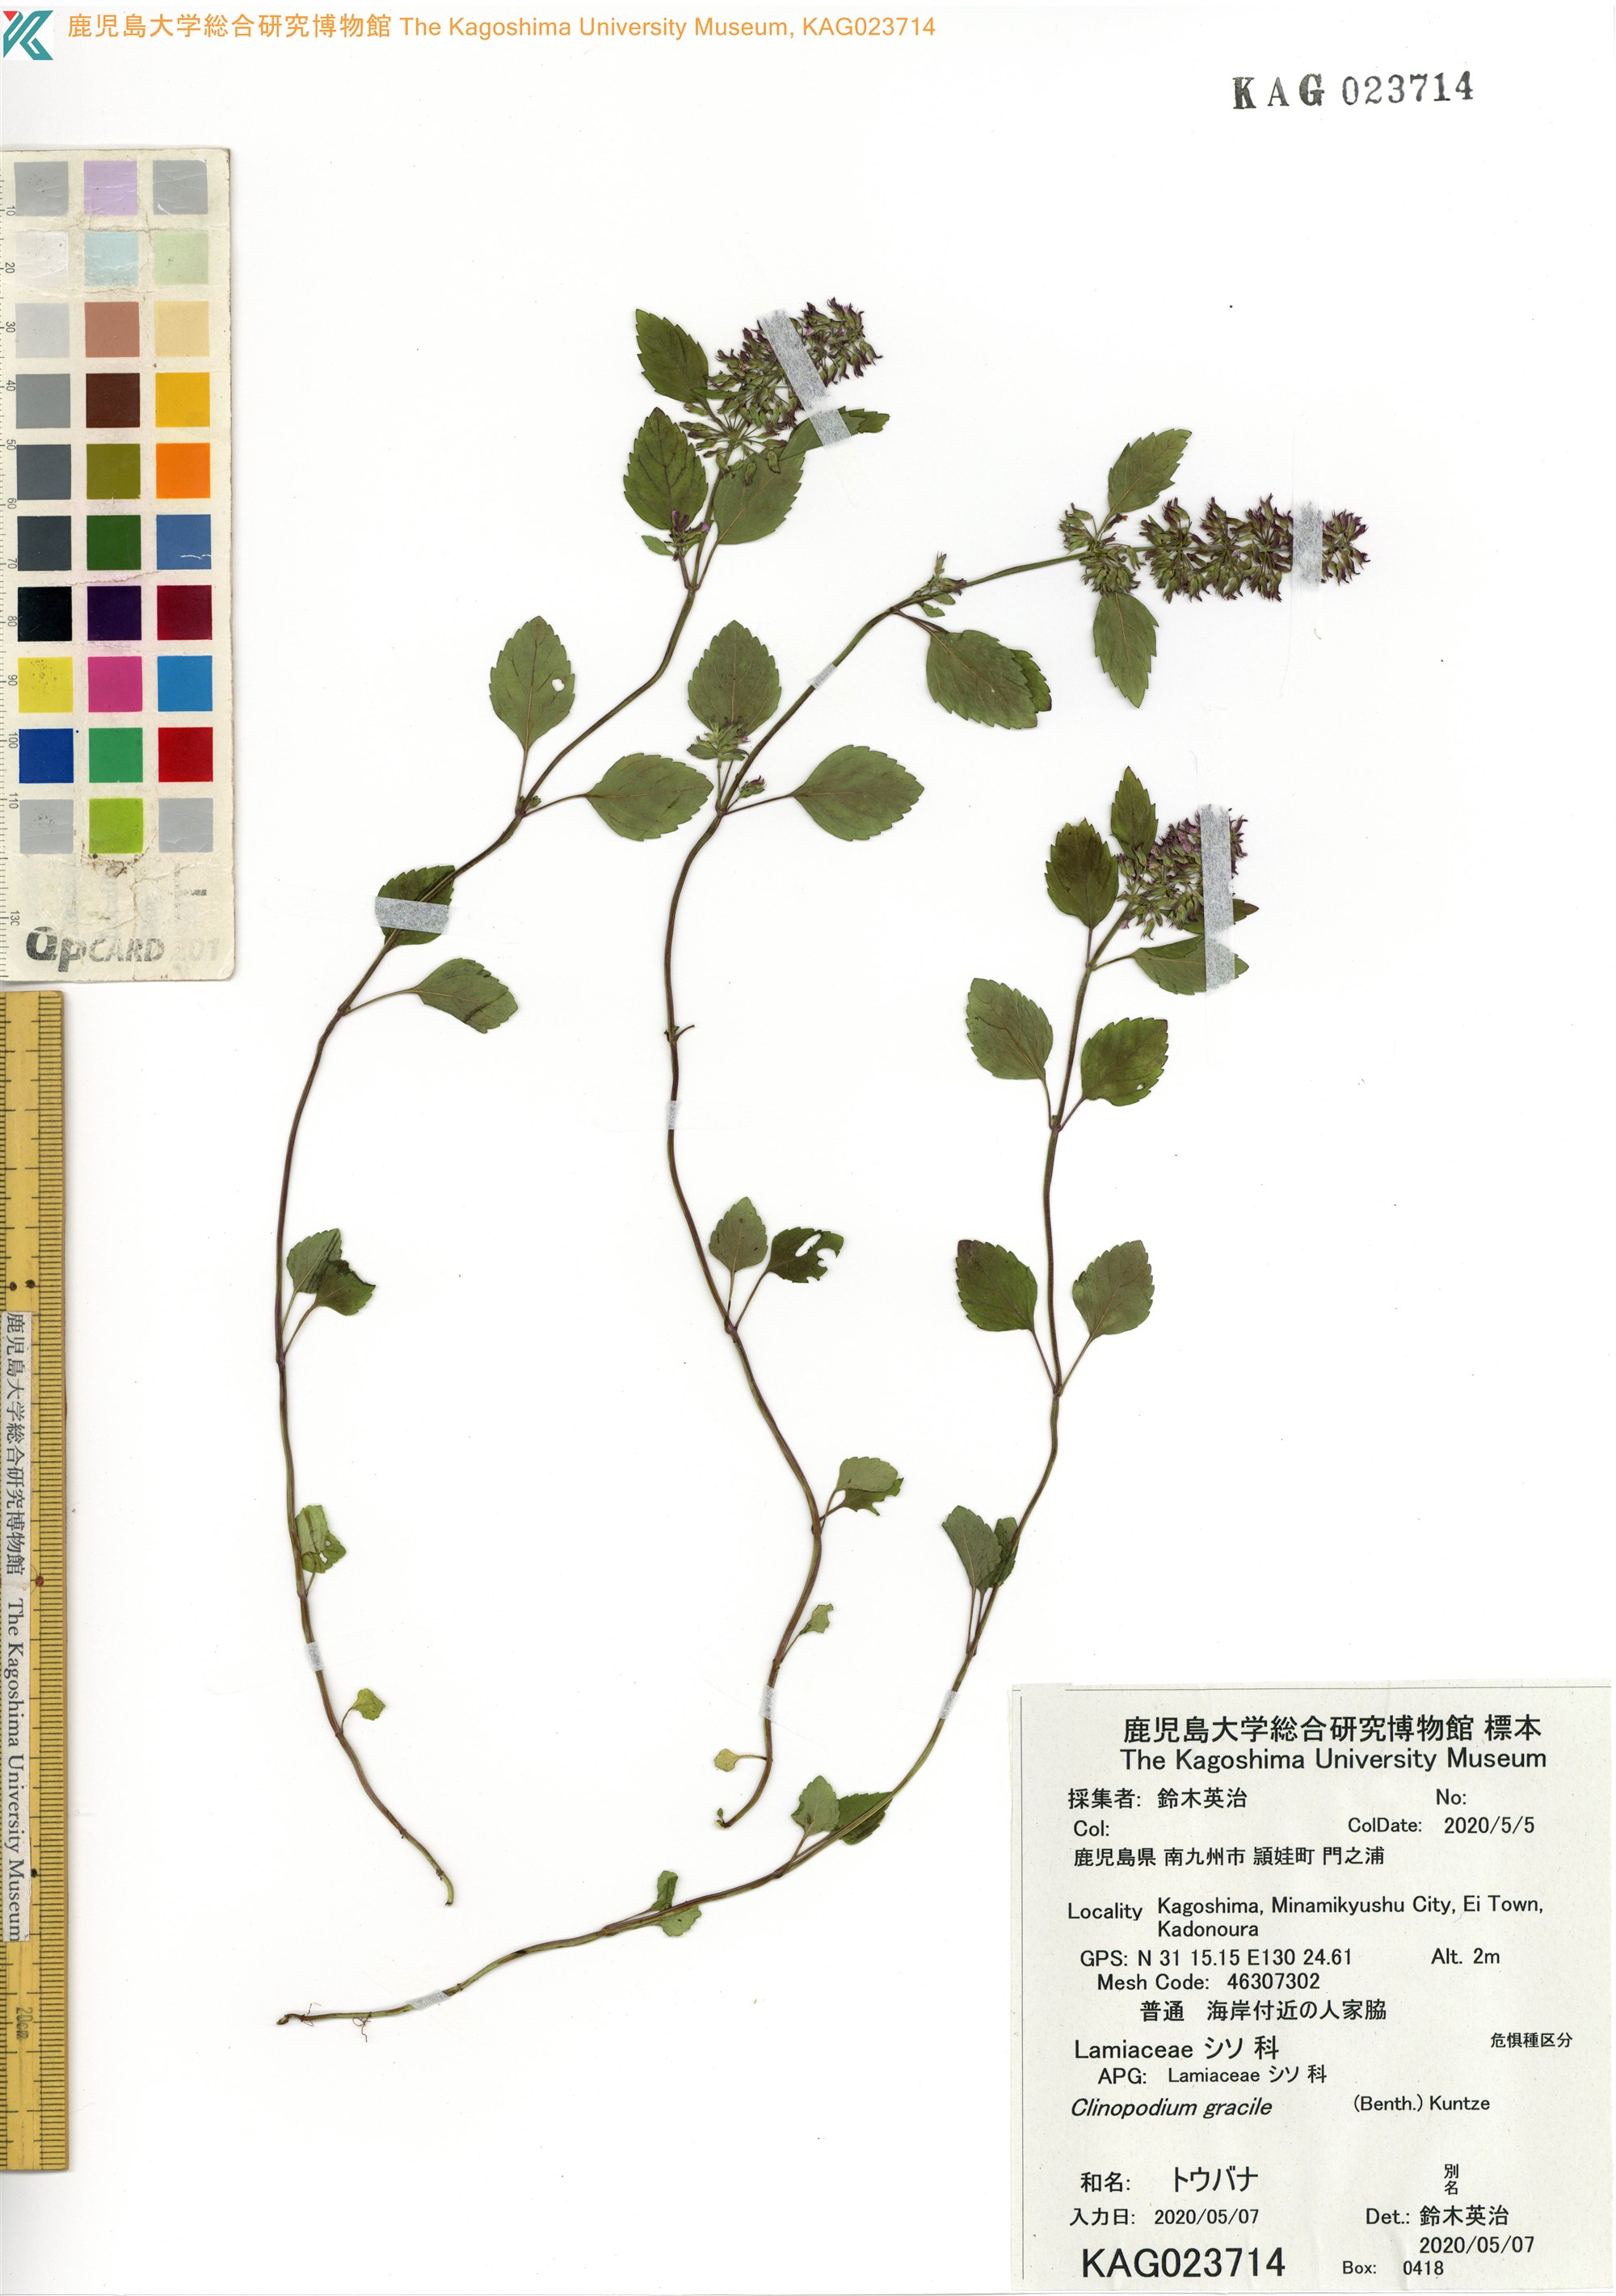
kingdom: Plantae
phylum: Tracheophyta
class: Magnoliopsida
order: Lamiales
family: Lamiaceae
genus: Clinopodium
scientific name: Clinopodium gracile
